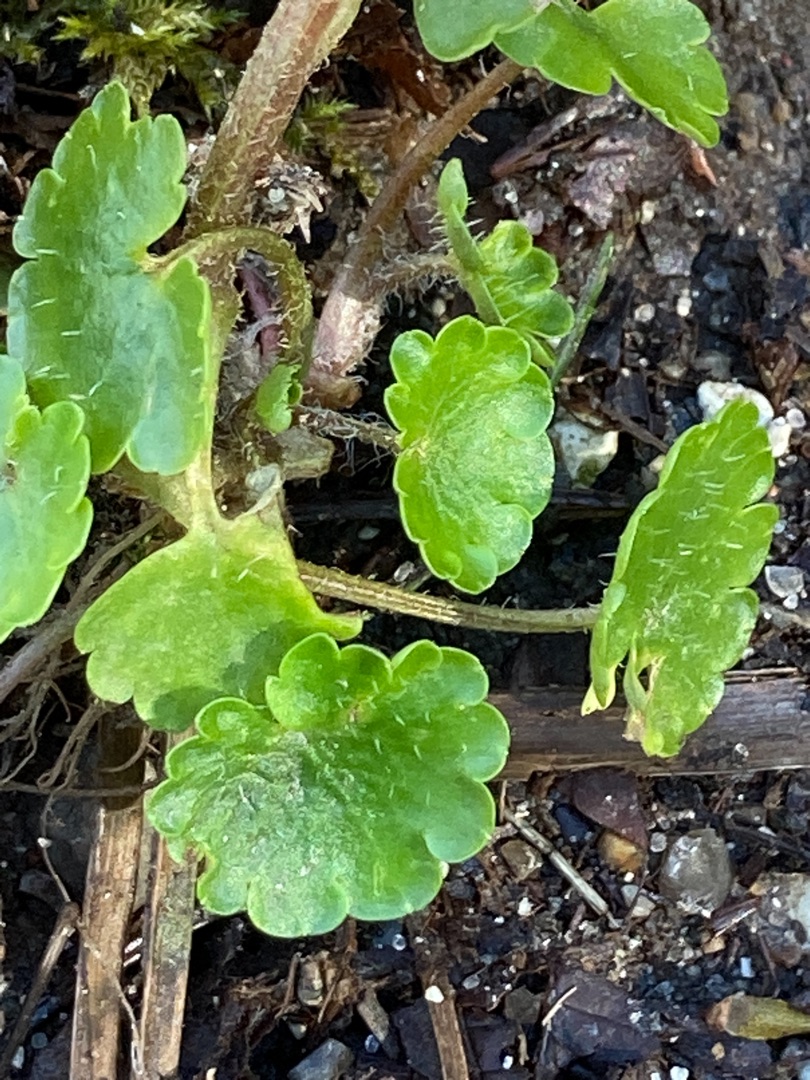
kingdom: Plantae
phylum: Tracheophyta
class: Magnoliopsida
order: Saxifragales
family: Saxifragaceae
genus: Chrysosplenium
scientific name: Chrysosplenium alternifolium
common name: Almindelig milturt
